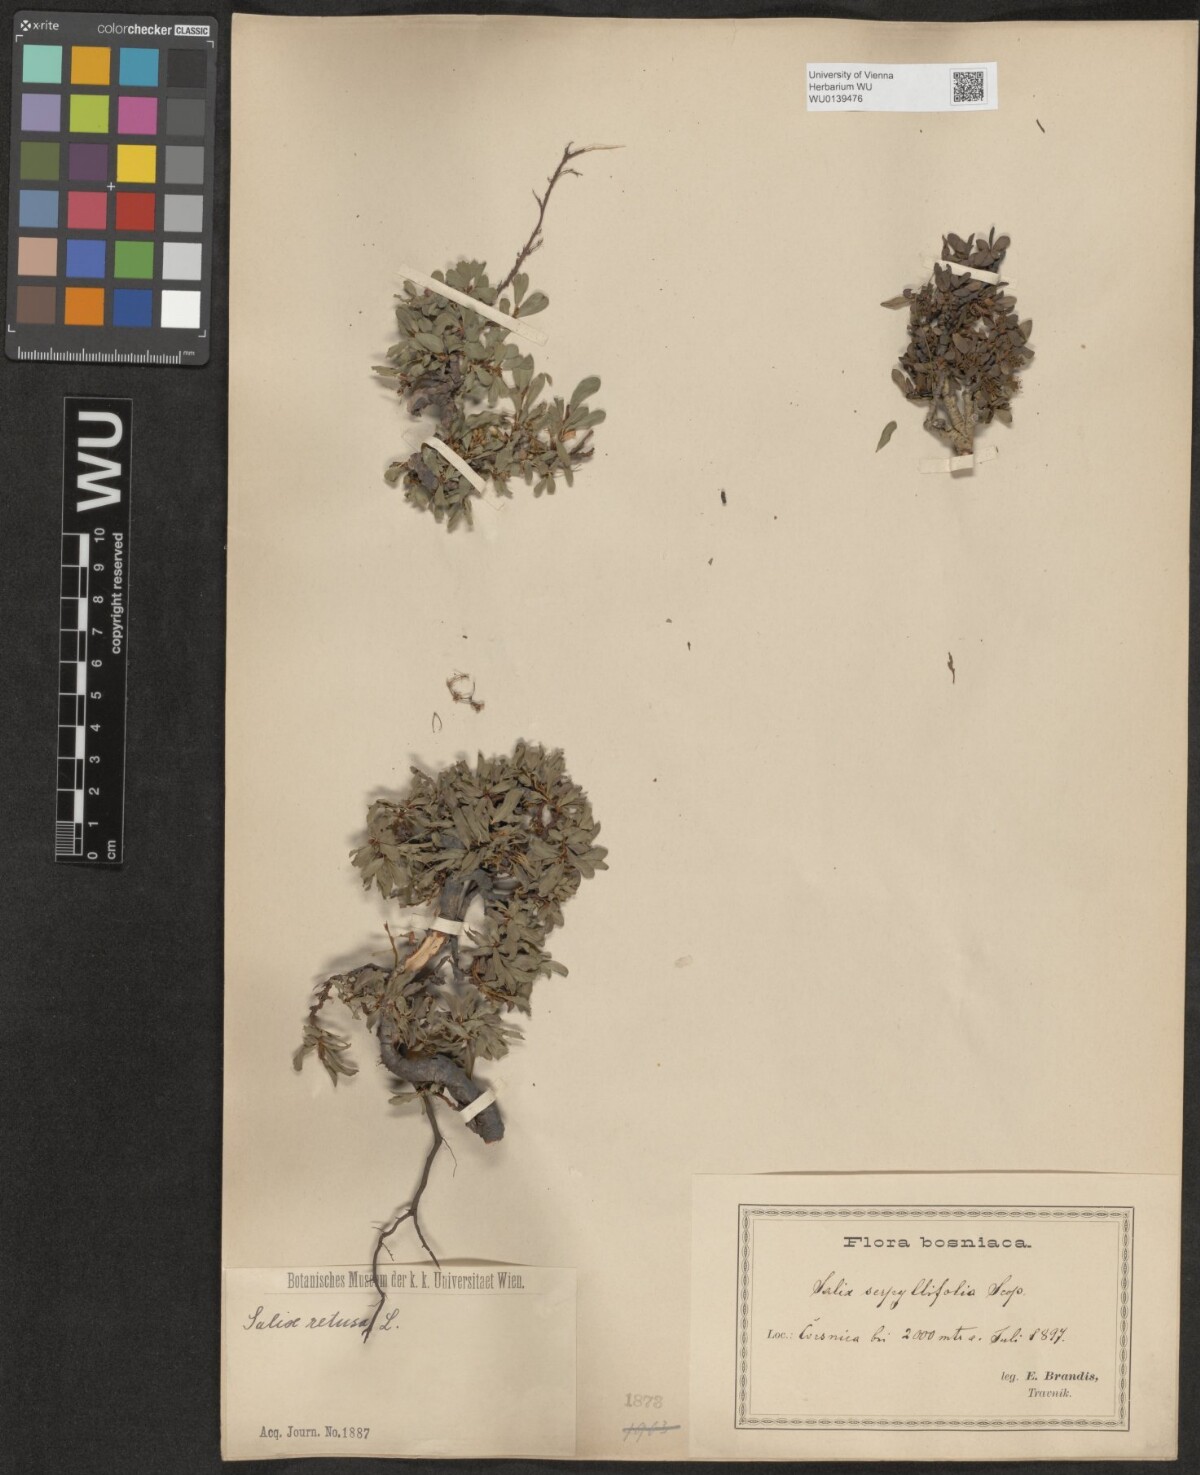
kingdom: Plantae
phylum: Tracheophyta
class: Magnoliopsida
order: Malpighiales
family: Salicaceae
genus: Salix
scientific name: Salix retusa
